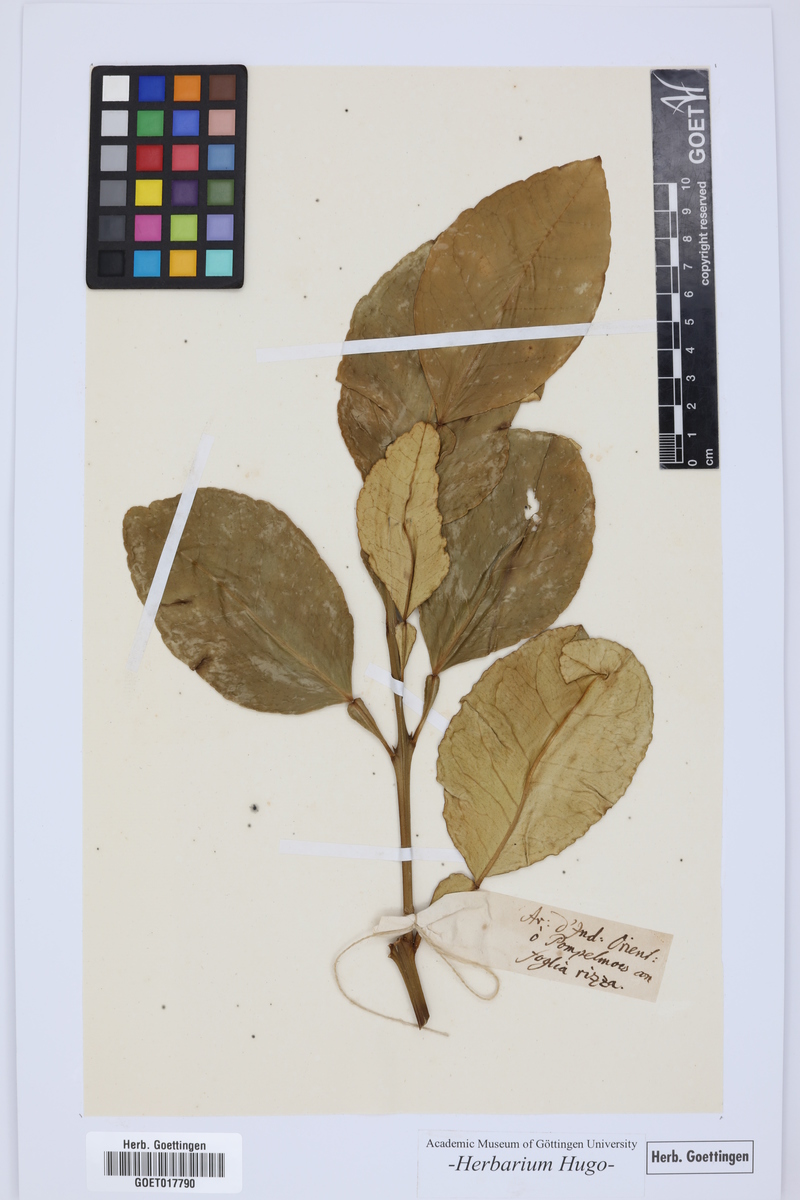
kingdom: Plantae
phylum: Tracheophyta
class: Magnoliopsida
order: Sapindales
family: Rutaceae
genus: Citrus
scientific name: Citrus
